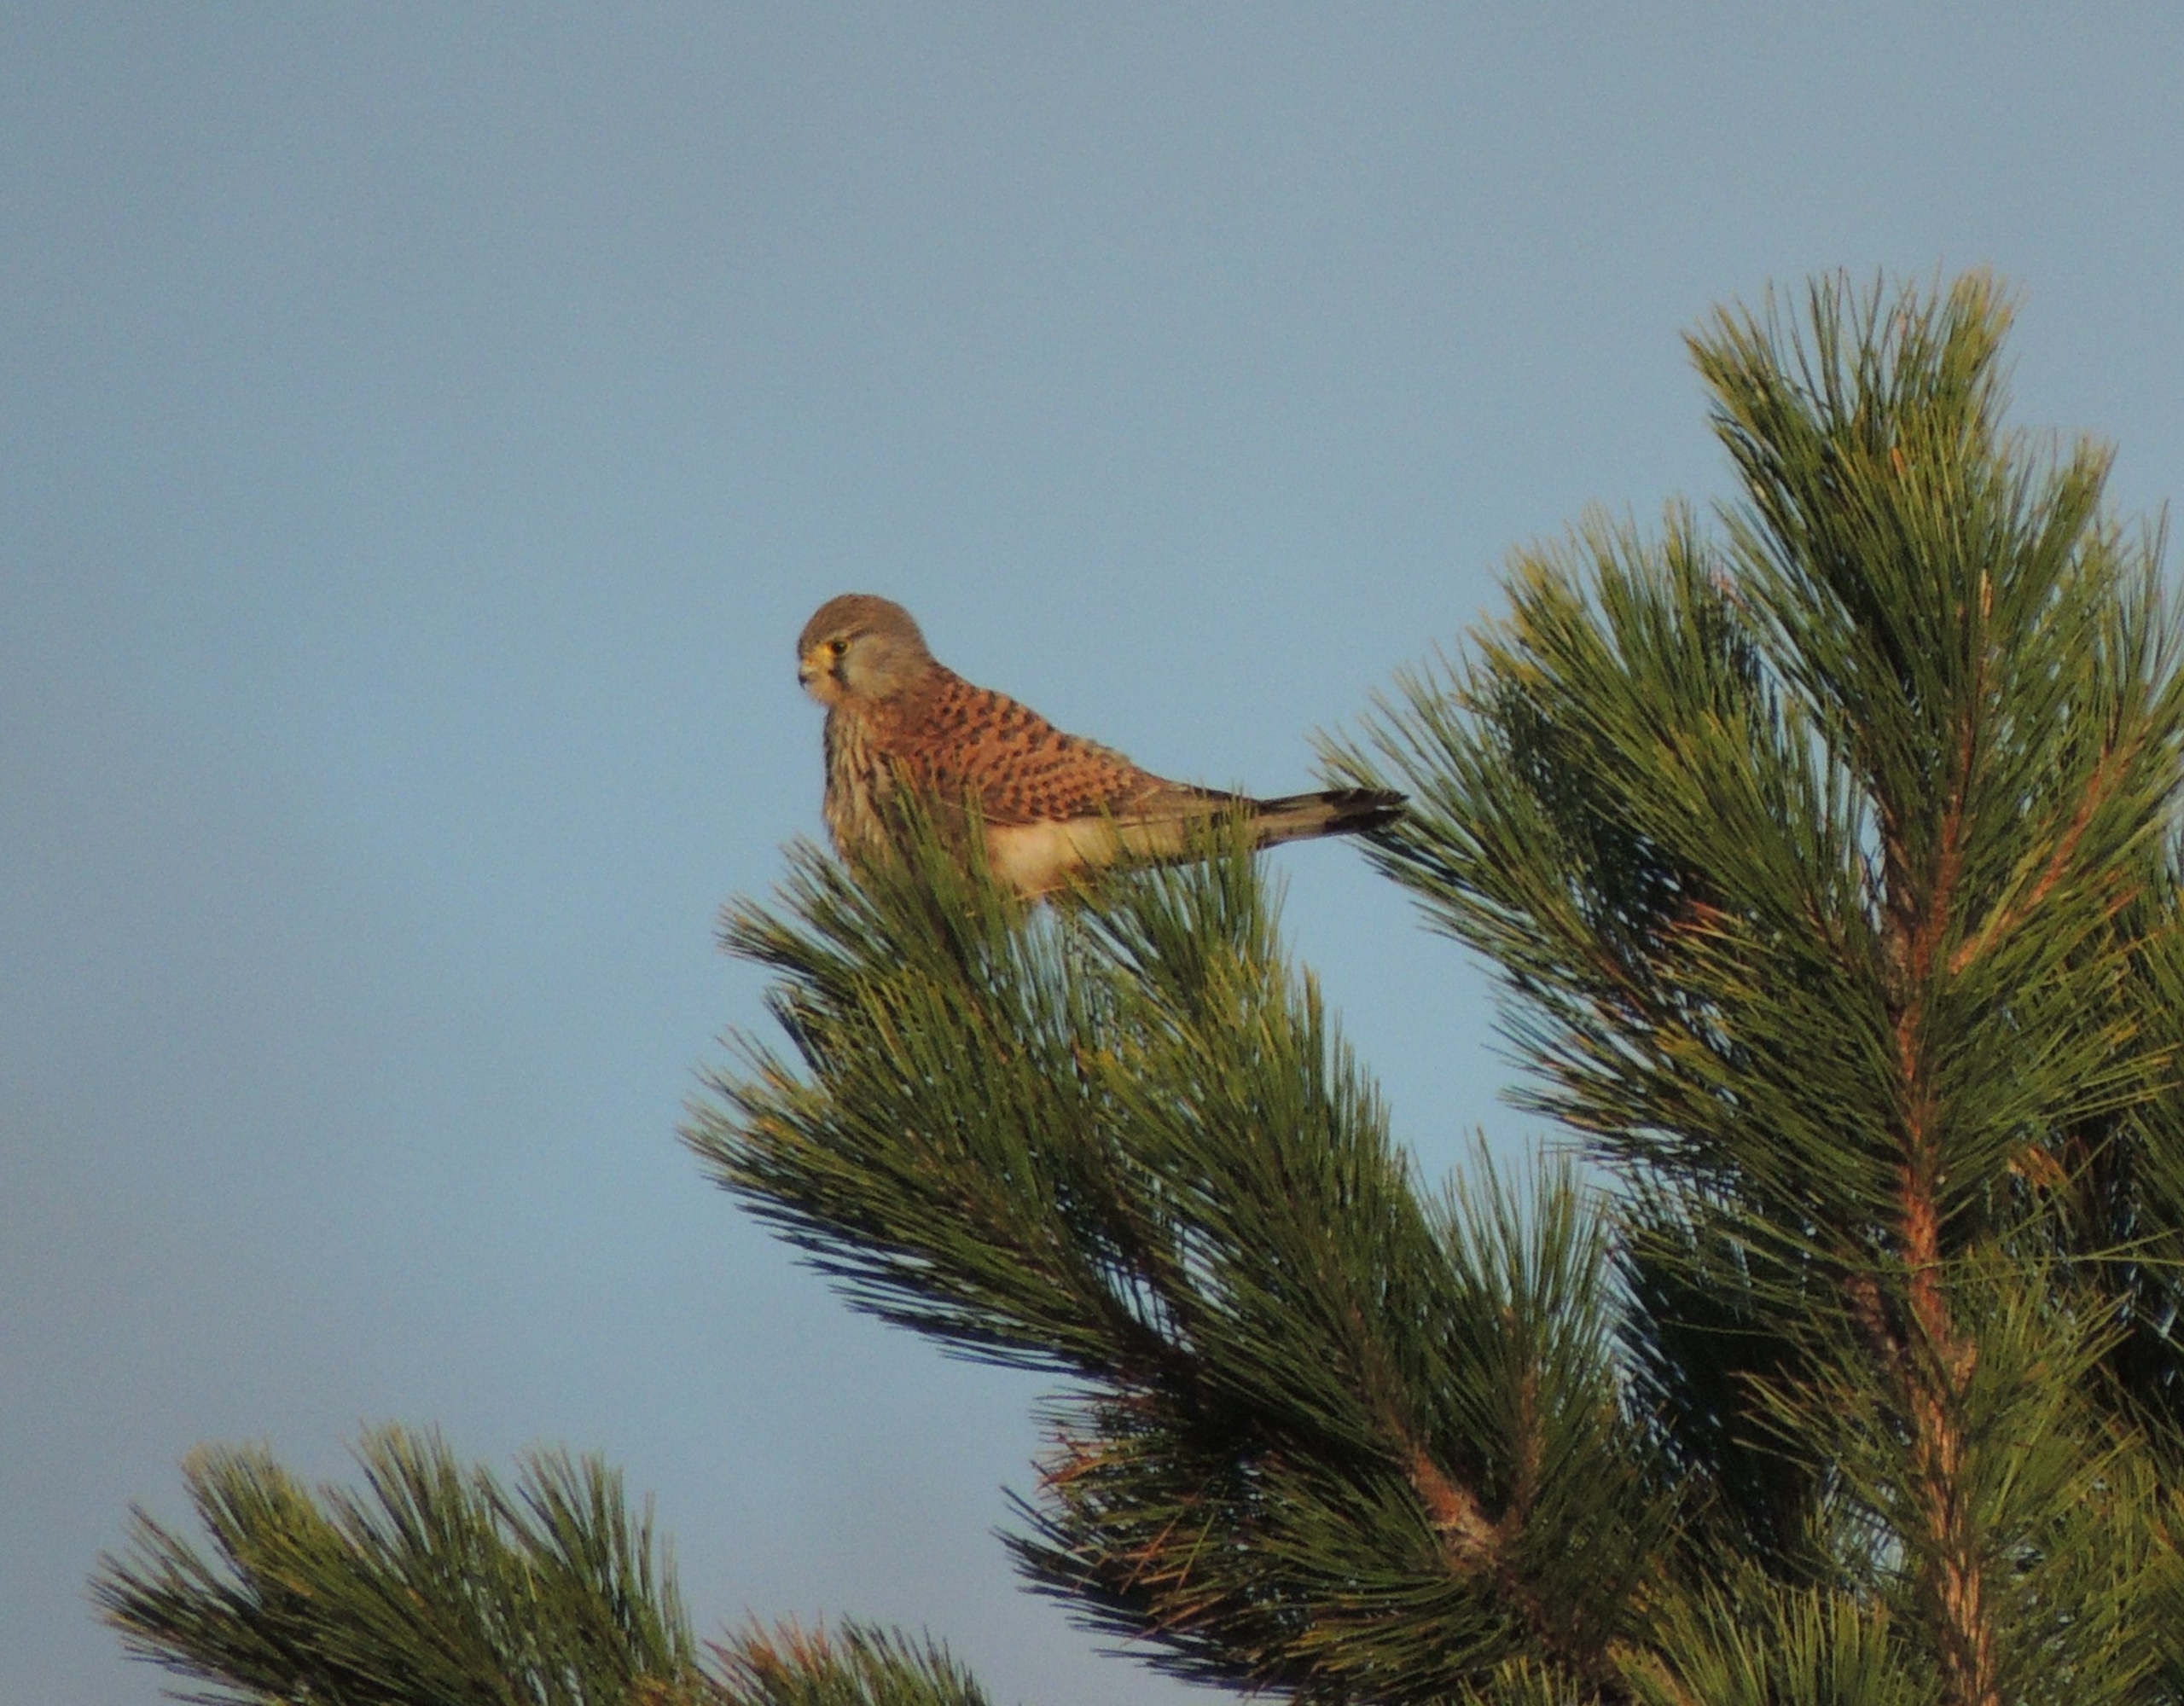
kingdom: Animalia
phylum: Chordata
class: Aves
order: Falconiformes
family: Falconidae
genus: Falco
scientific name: Falco tinnunculus
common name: Tårnfalk
